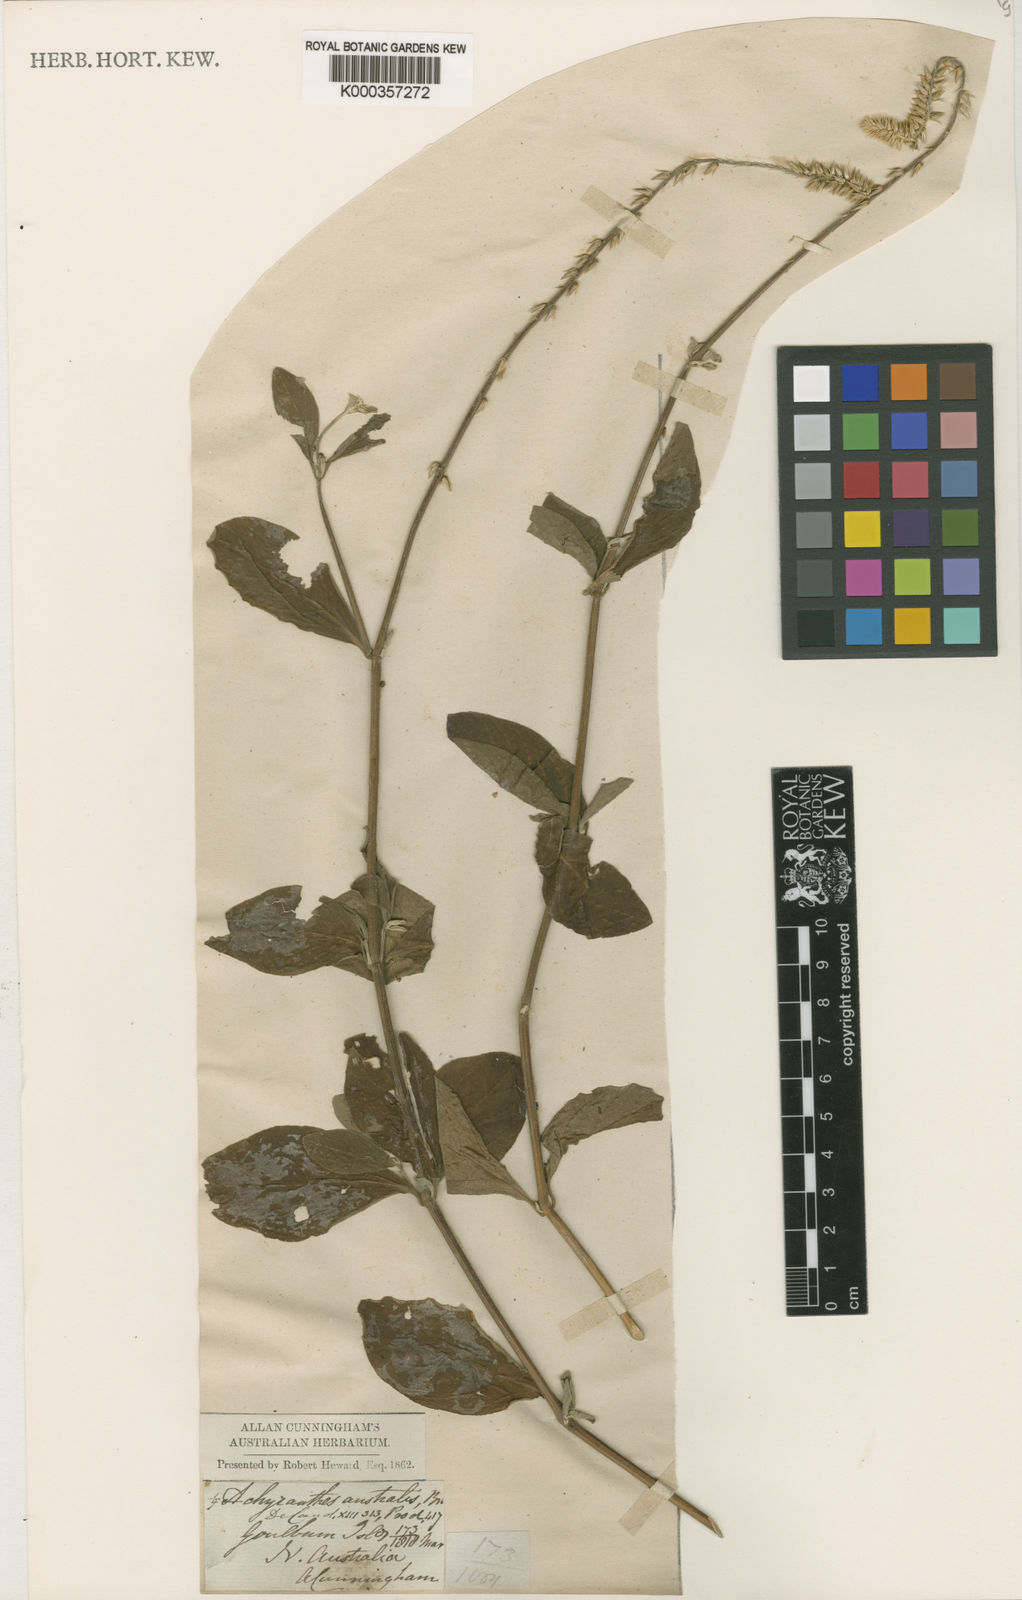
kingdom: Plantae
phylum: Tracheophyta
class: Magnoliopsida
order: Caryophyllales
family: Amaranthaceae
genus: Achyranthes
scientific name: Achyranthes aspera
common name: Devil's horsewhip
